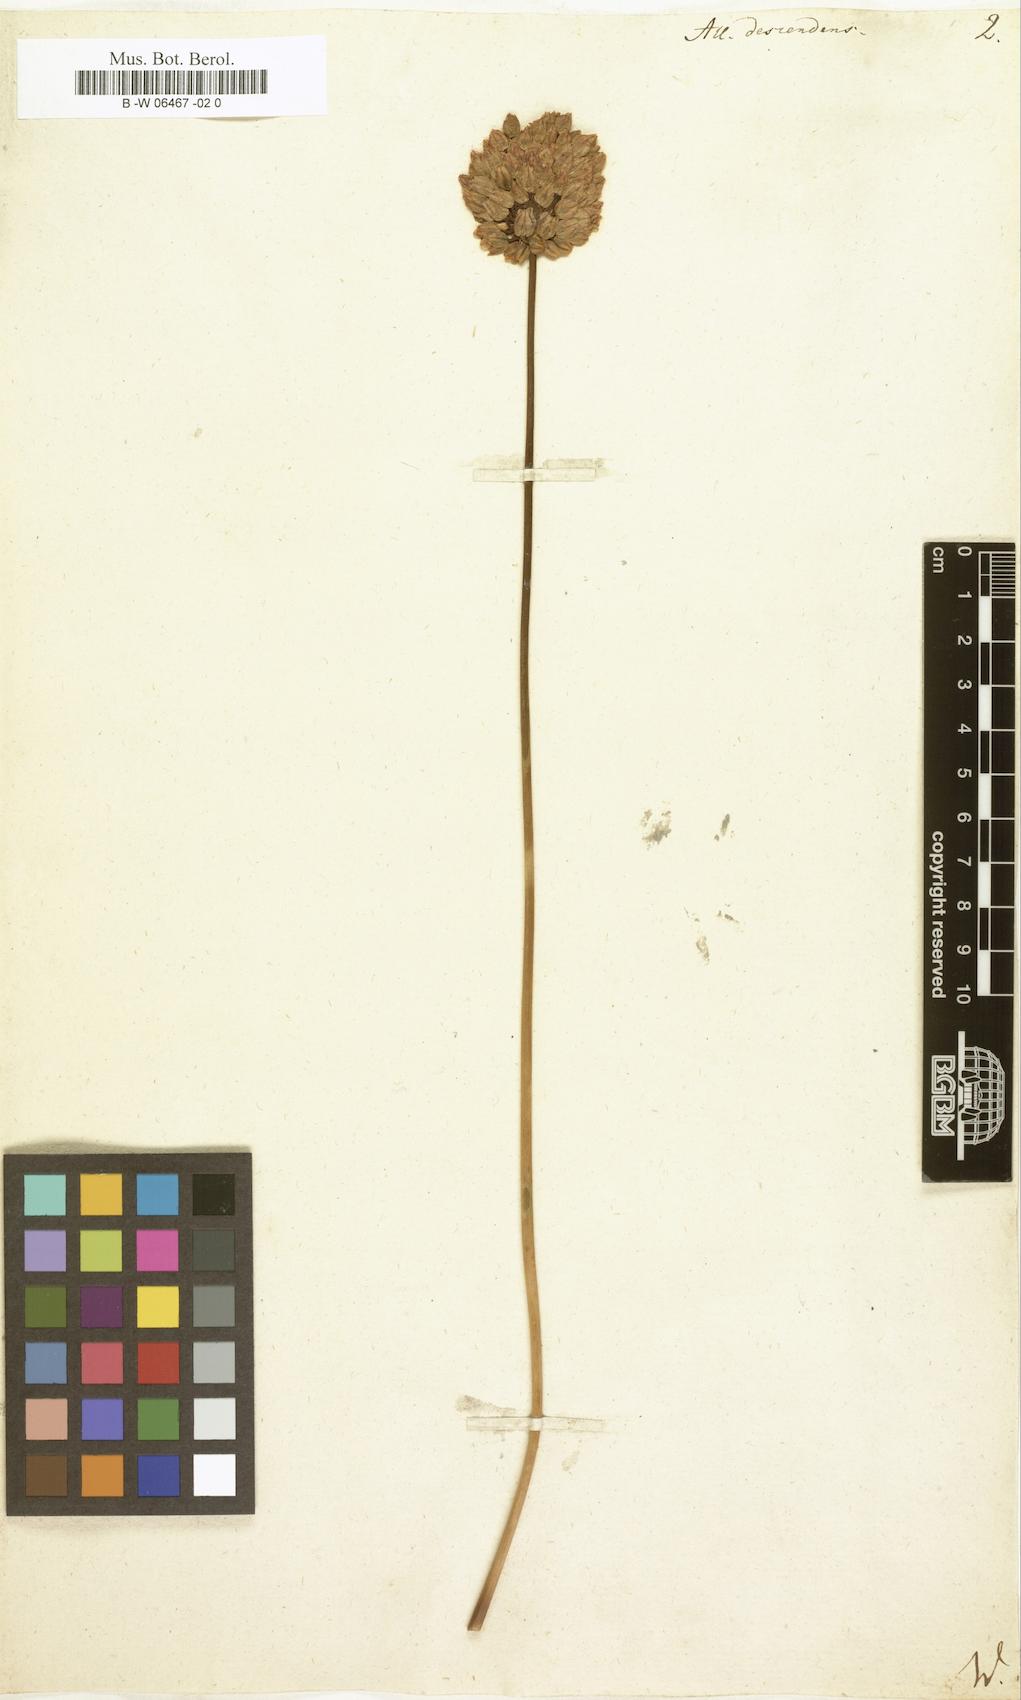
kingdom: Plantae
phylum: Tracheophyta
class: Liliopsida
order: Asparagales
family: Amaryllidaceae
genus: Allium
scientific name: Allium descendens
